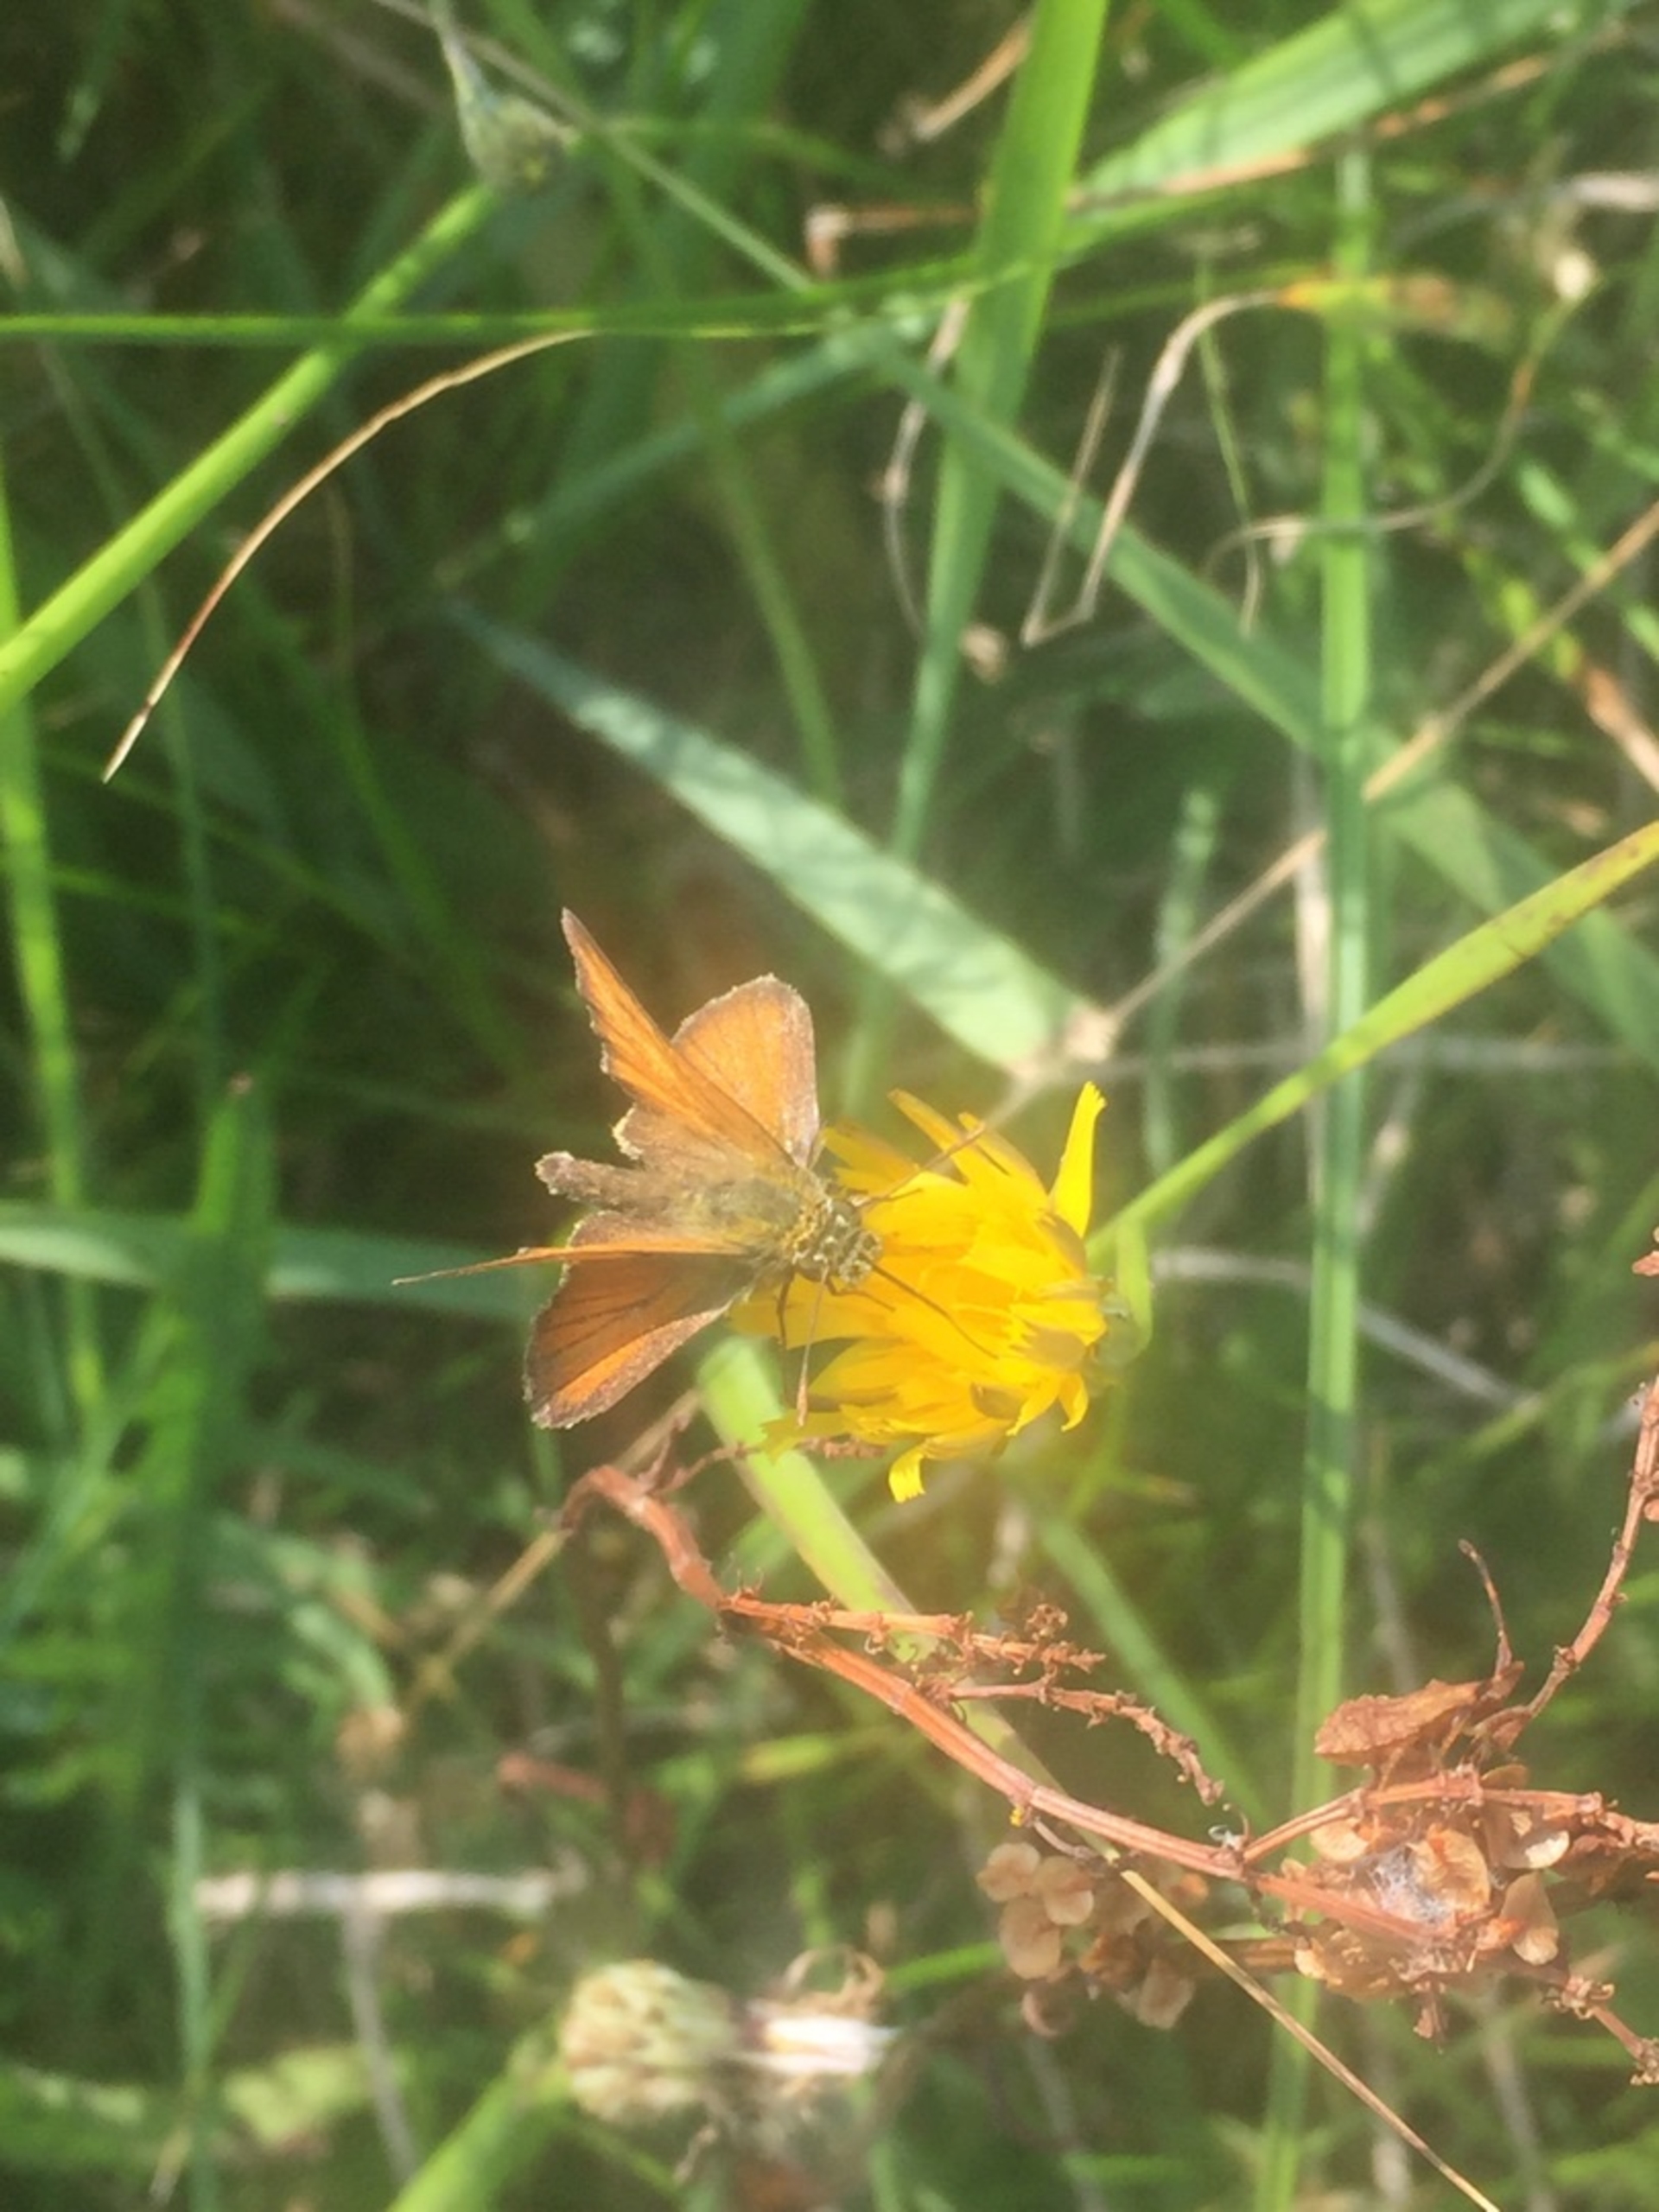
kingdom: Animalia
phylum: Arthropoda
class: Insecta
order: Lepidoptera
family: Hesperiidae
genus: Thymelicus
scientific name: Thymelicus sylvestris
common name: Skråstregbredpande
